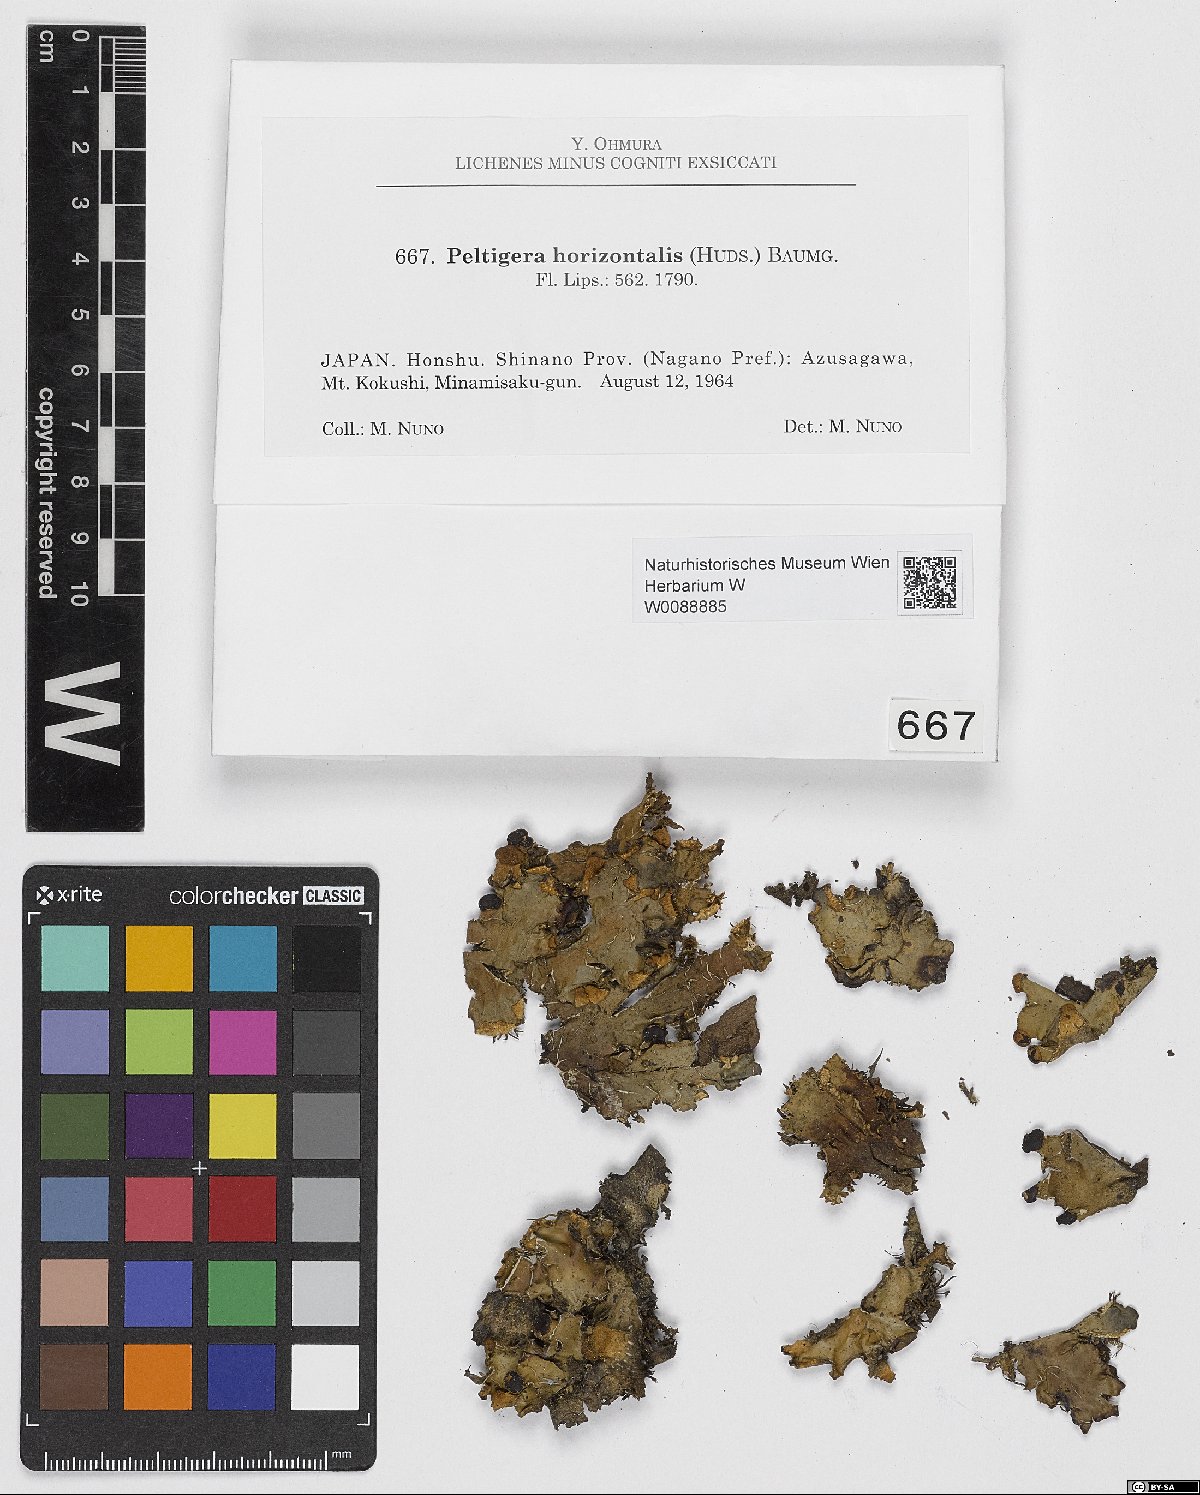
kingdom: Fungi
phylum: Ascomycota
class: Lecanoromycetes
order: Peltigerales
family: Peltigeraceae
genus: Peltigera
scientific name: Peltigera horizontalis
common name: Flat fruited pelt
